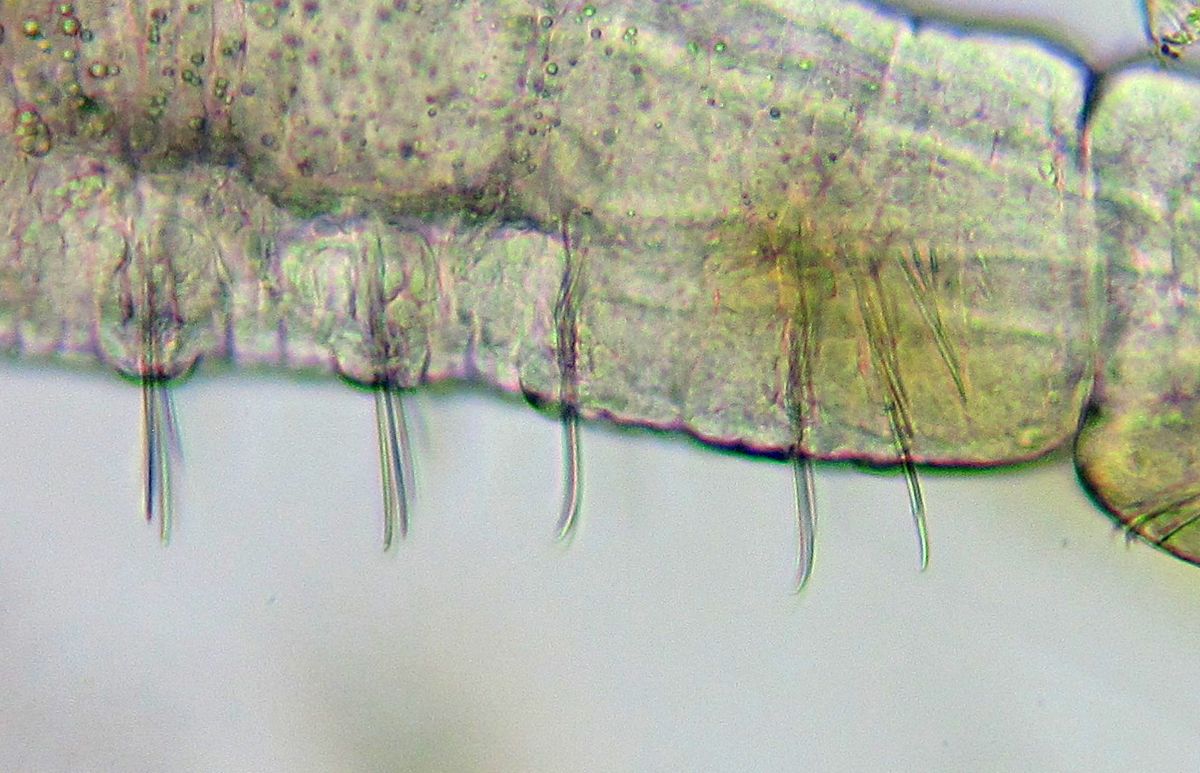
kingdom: Animalia
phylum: Annelida
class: Clitellata
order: Tubificida
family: Naididae
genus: Chaetogaster
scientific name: Chaetogaster diastrophus
